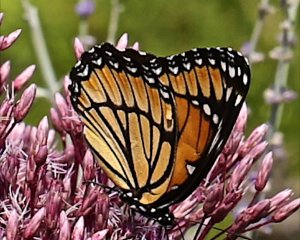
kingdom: Animalia
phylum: Arthropoda
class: Insecta
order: Lepidoptera
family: Nymphalidae
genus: Limenitis
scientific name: Limenitis archippus
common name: Viceroy
